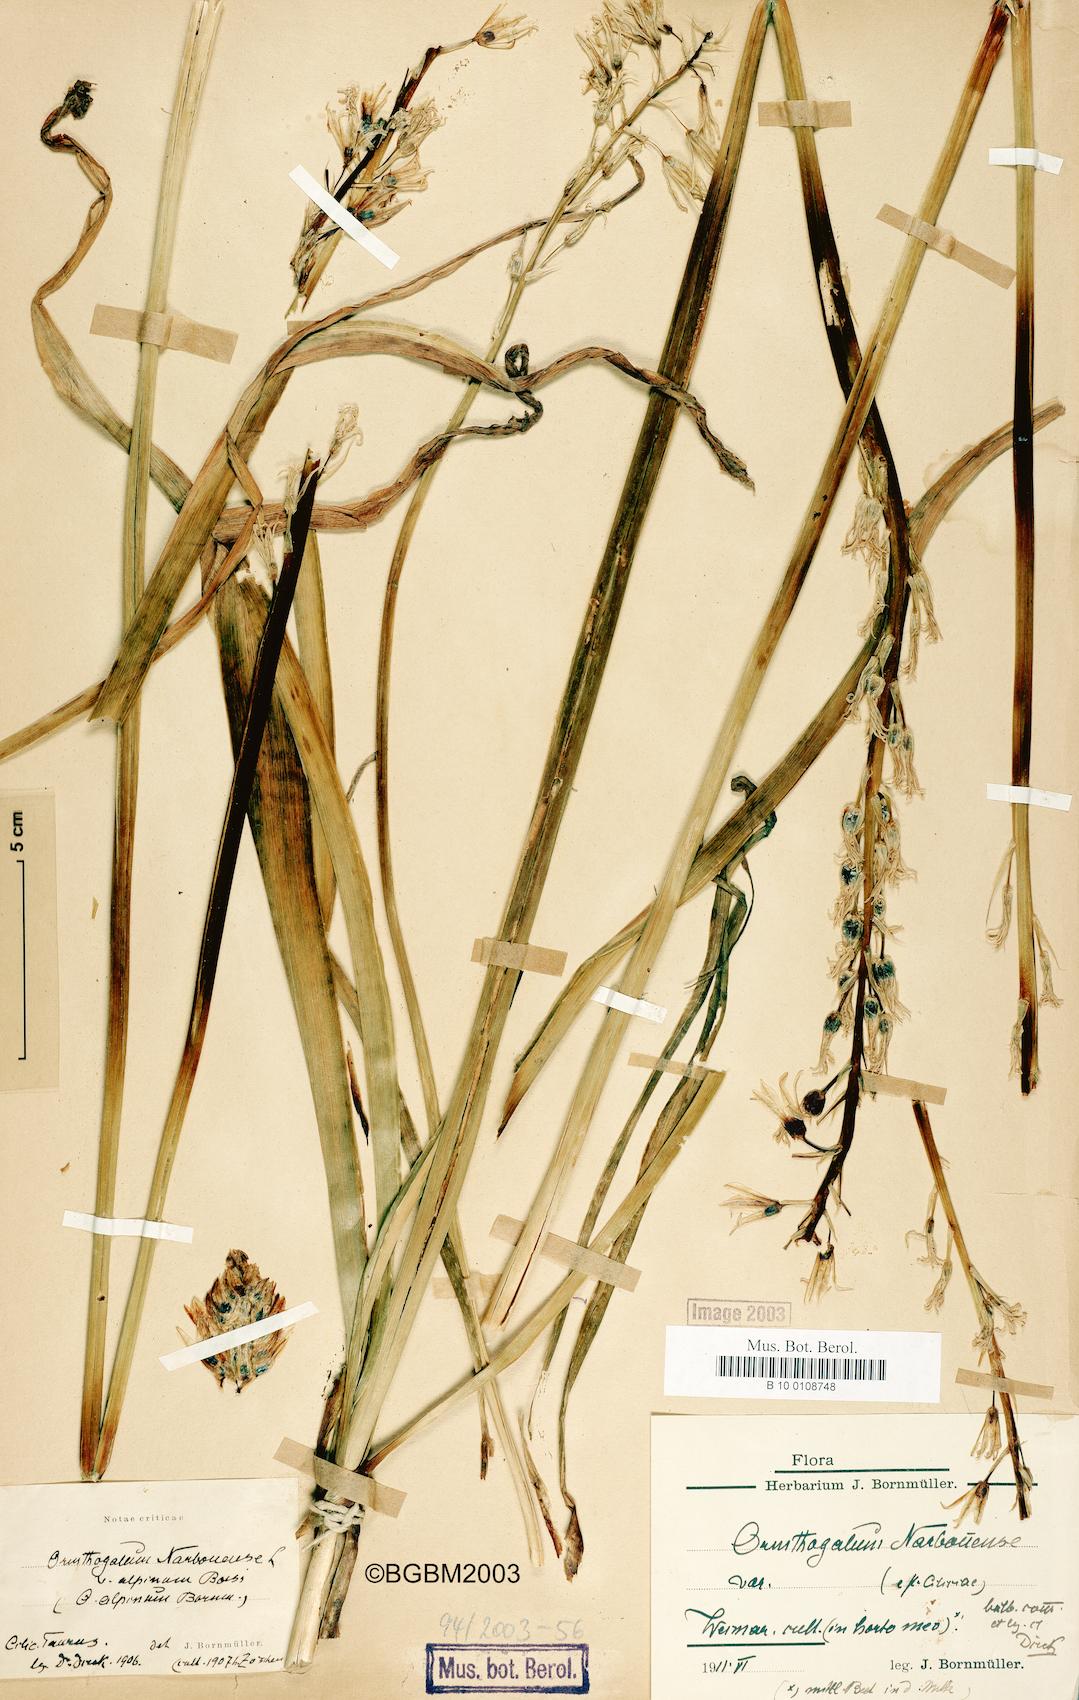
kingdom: Plantae
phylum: Tracheophyta
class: Liliopsida
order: Asparagales
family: Asparagaceae
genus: Ornithogalum
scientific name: Ornithogalum narbonense
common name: Bath-asparagus
